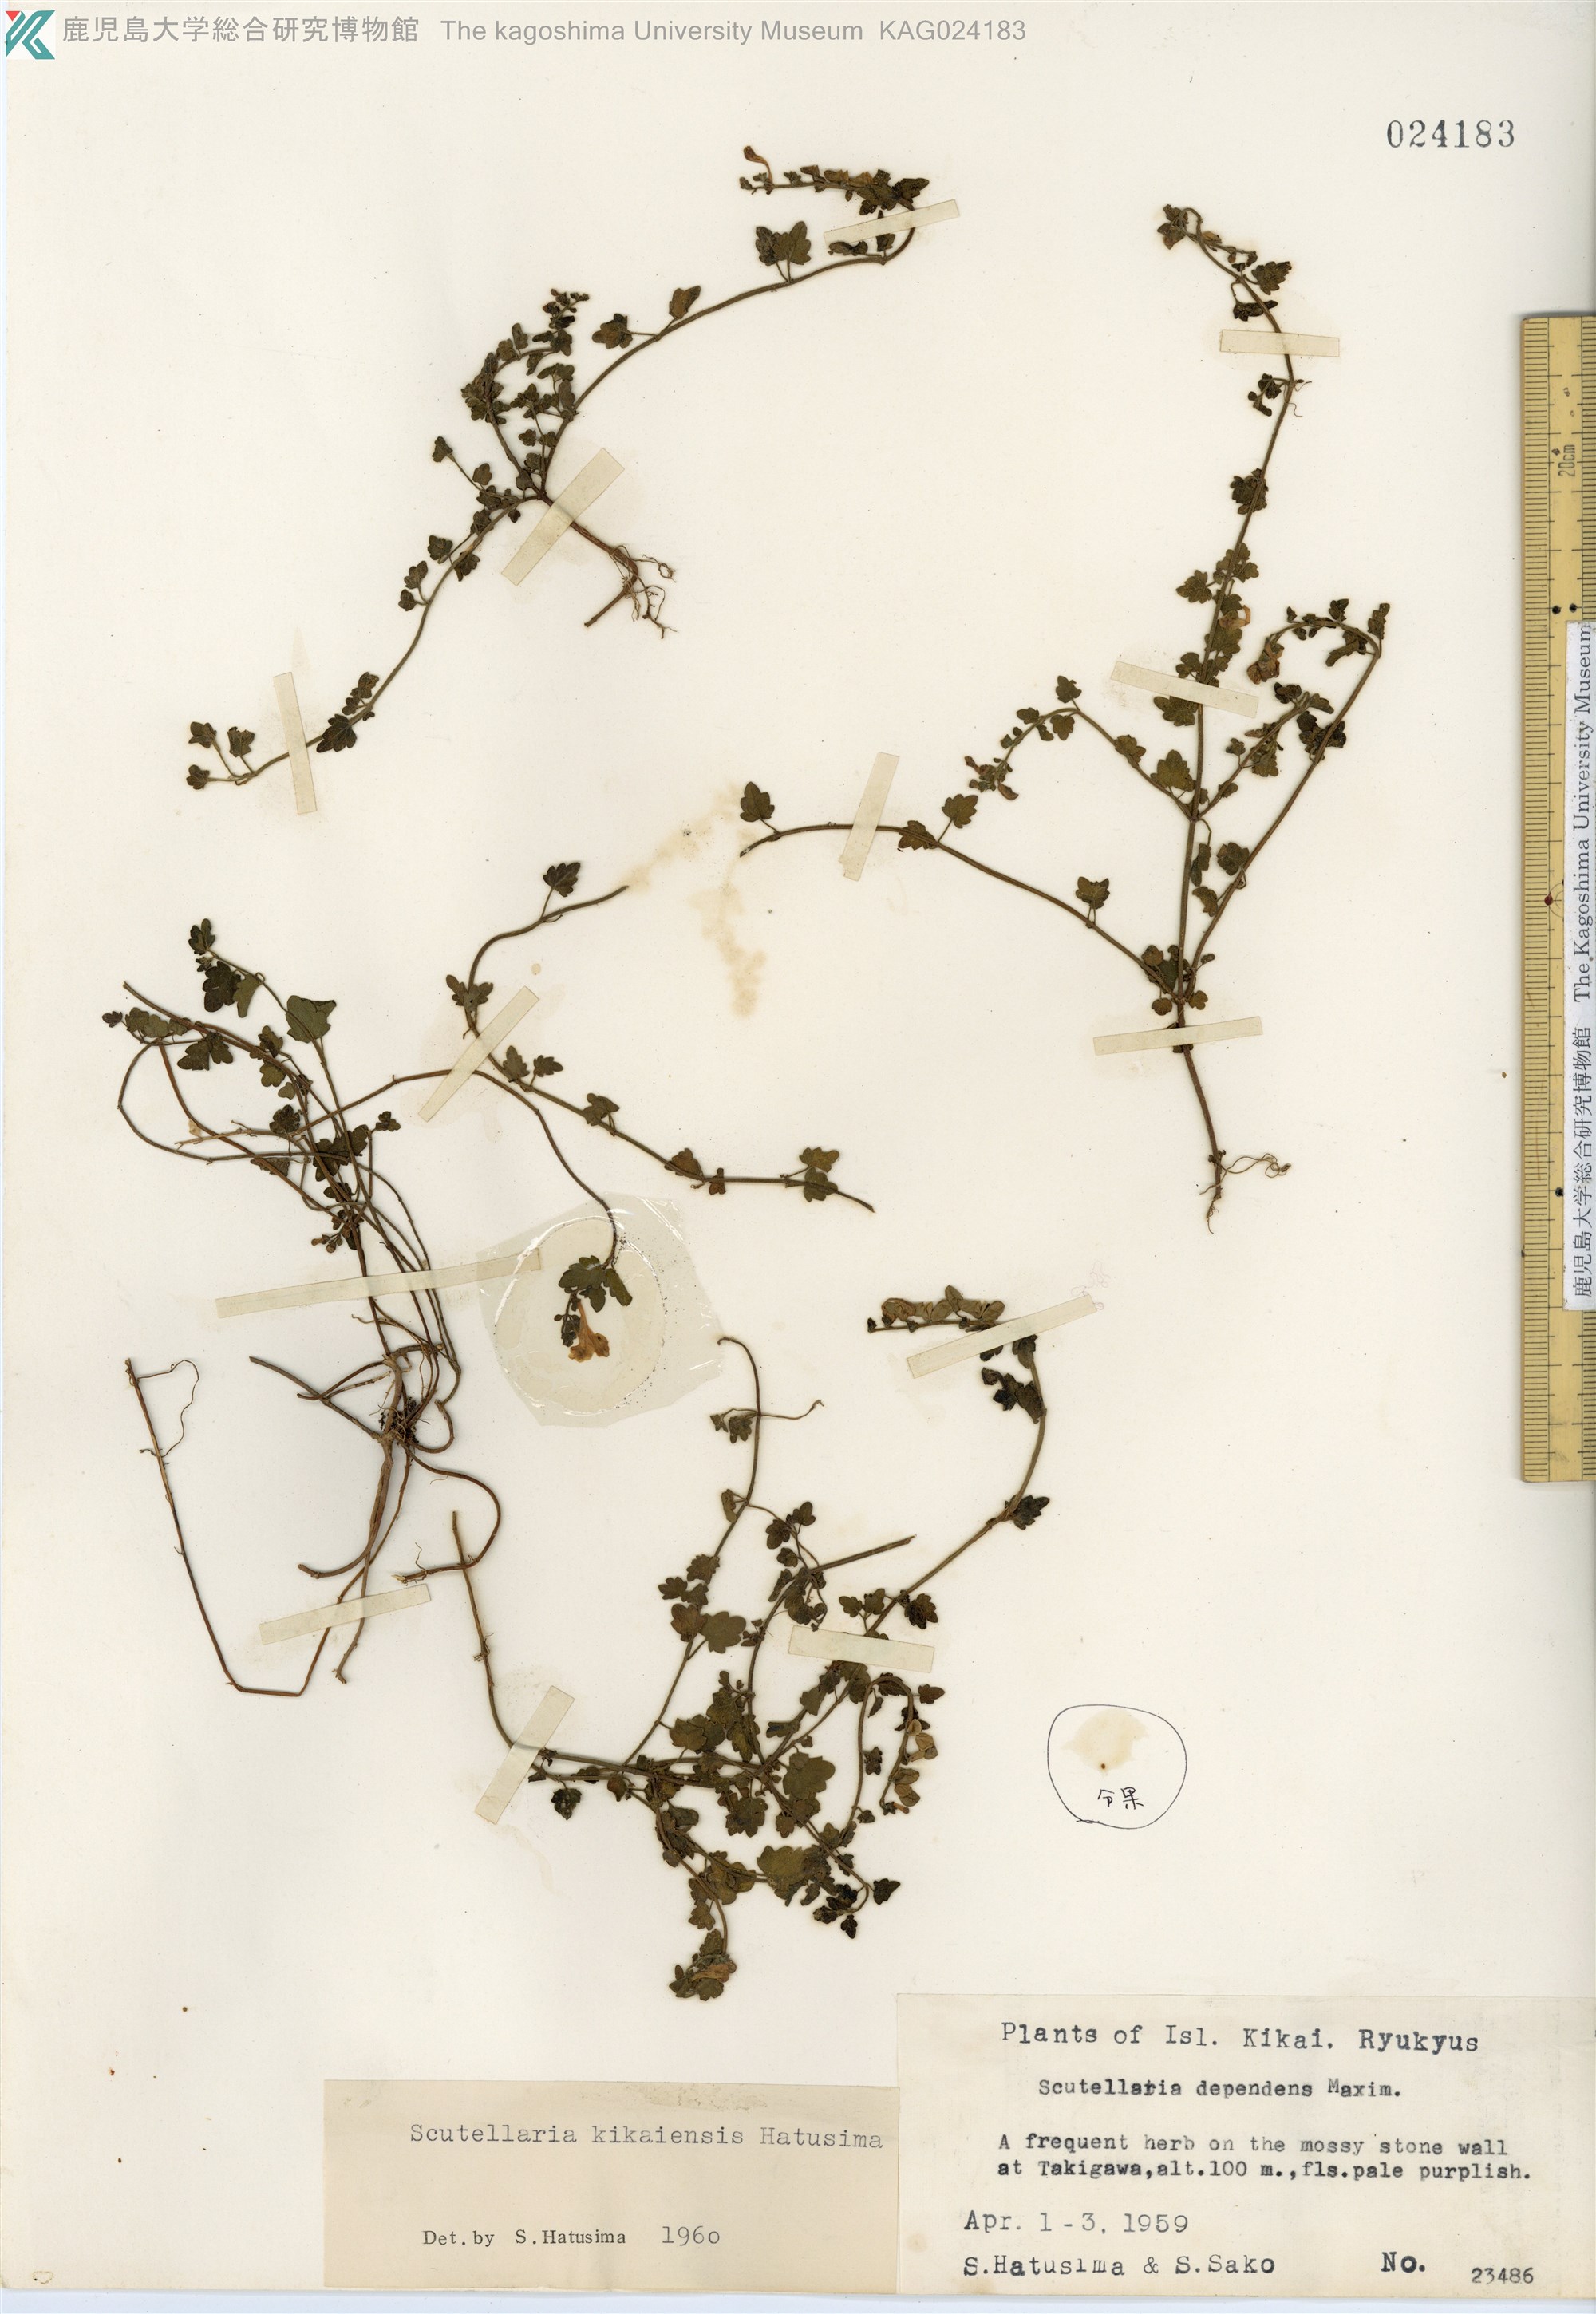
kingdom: Plantae
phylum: Tracheophyta
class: Magnoliopsida
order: Lamiales
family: Lamiaceae
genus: Scutellaria
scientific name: Scutellaria kikai-insularis
